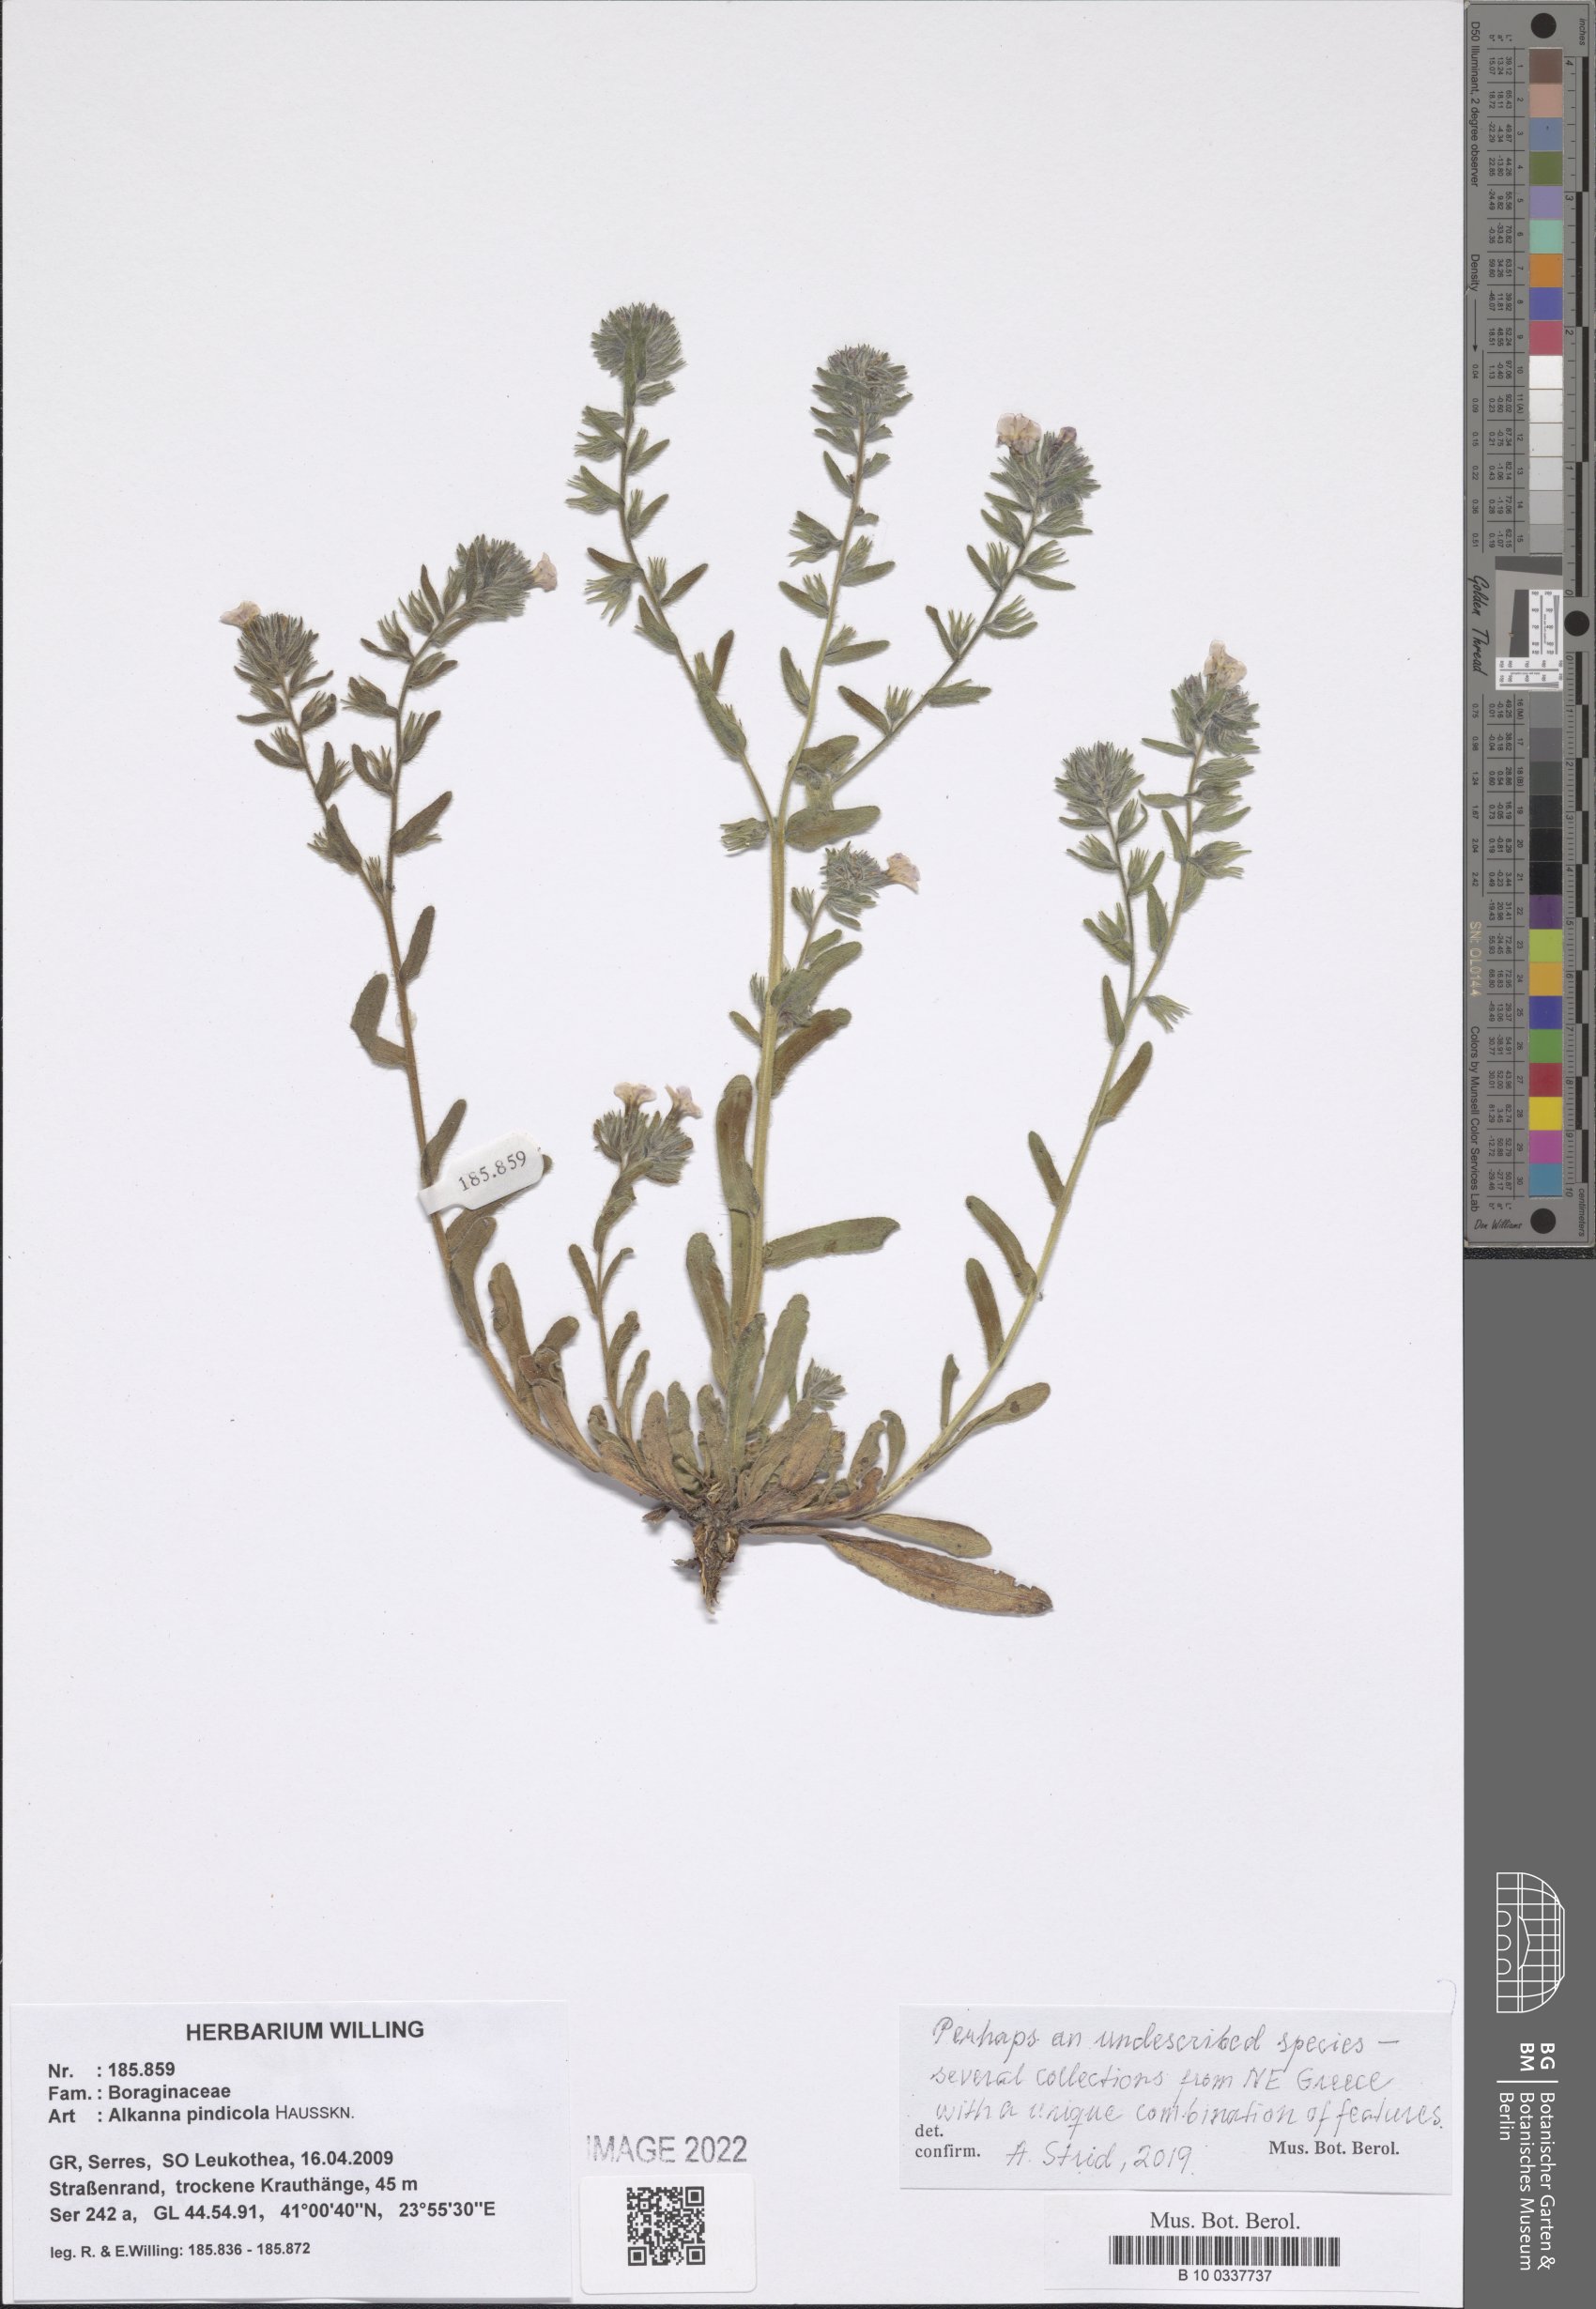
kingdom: Plantae
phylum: Tracheophyta
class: Magnoliopsida
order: Boraginales
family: Boraginaceae
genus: Alkanna
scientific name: Alkanna pindicola
